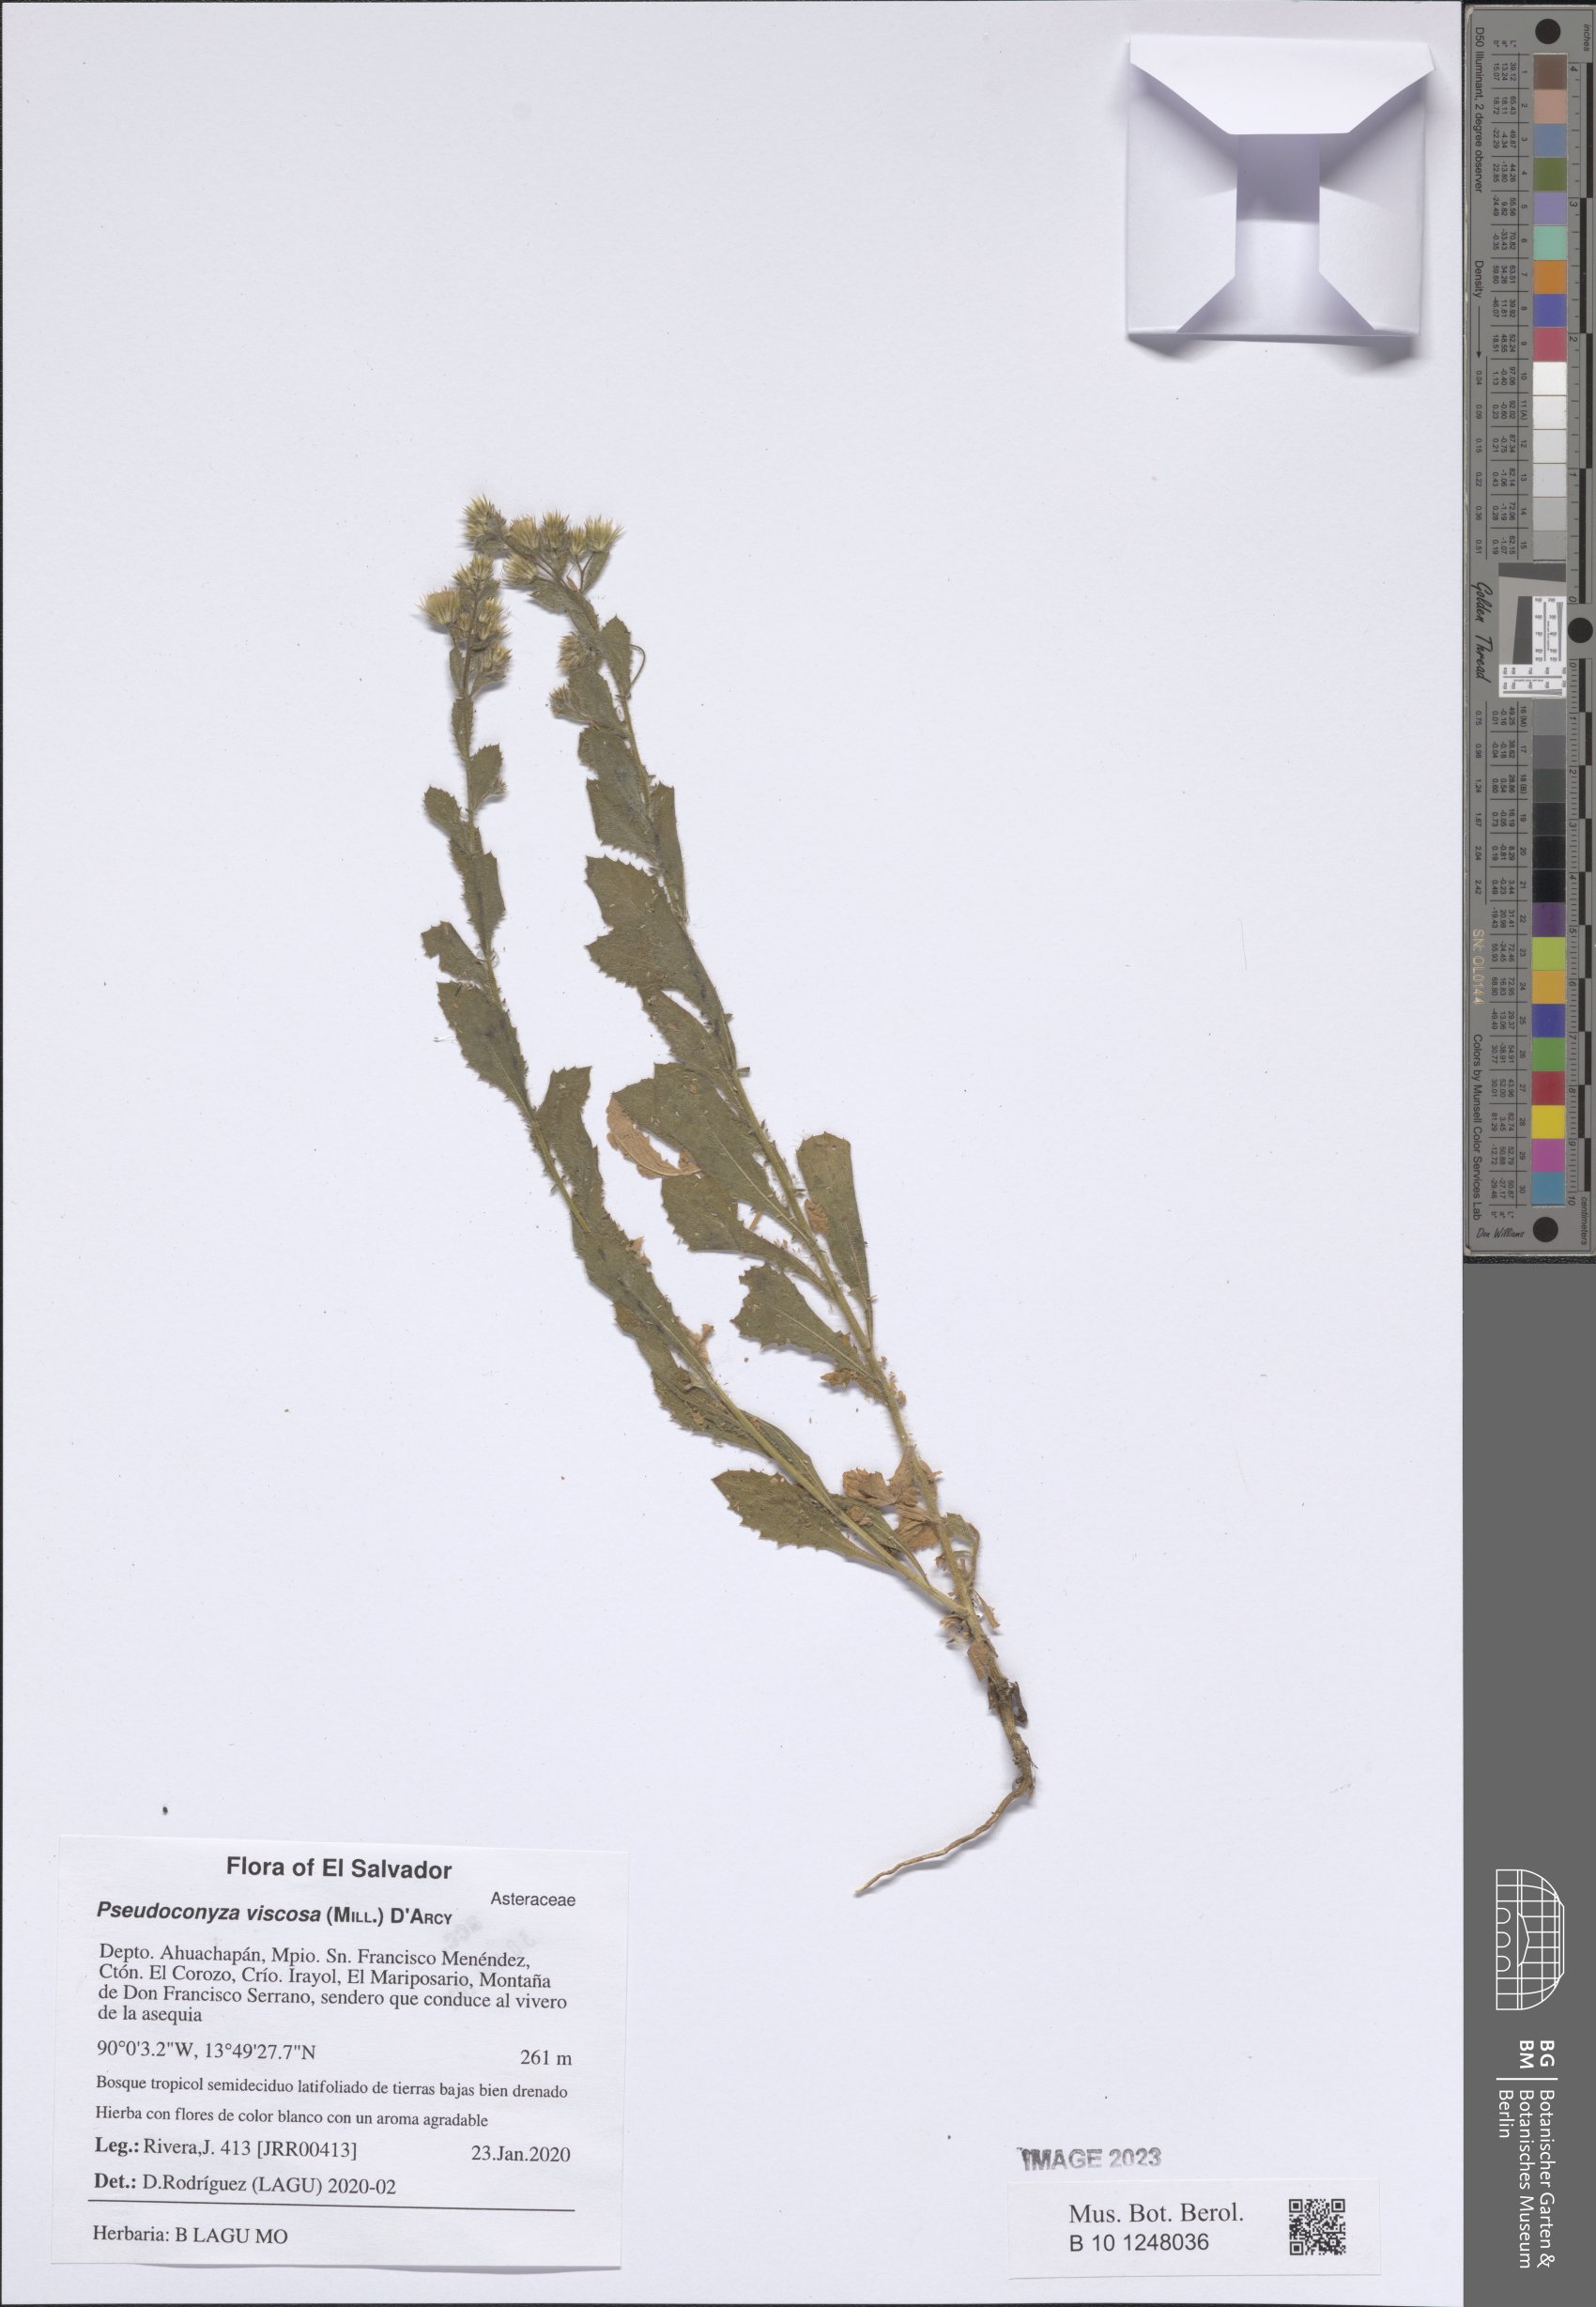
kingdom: Plantae
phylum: Tracheophyta
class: Magnoliopsida
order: Asterales
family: Asteraceae
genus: Pseudoconyza
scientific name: Pseudoconyza viscosa
